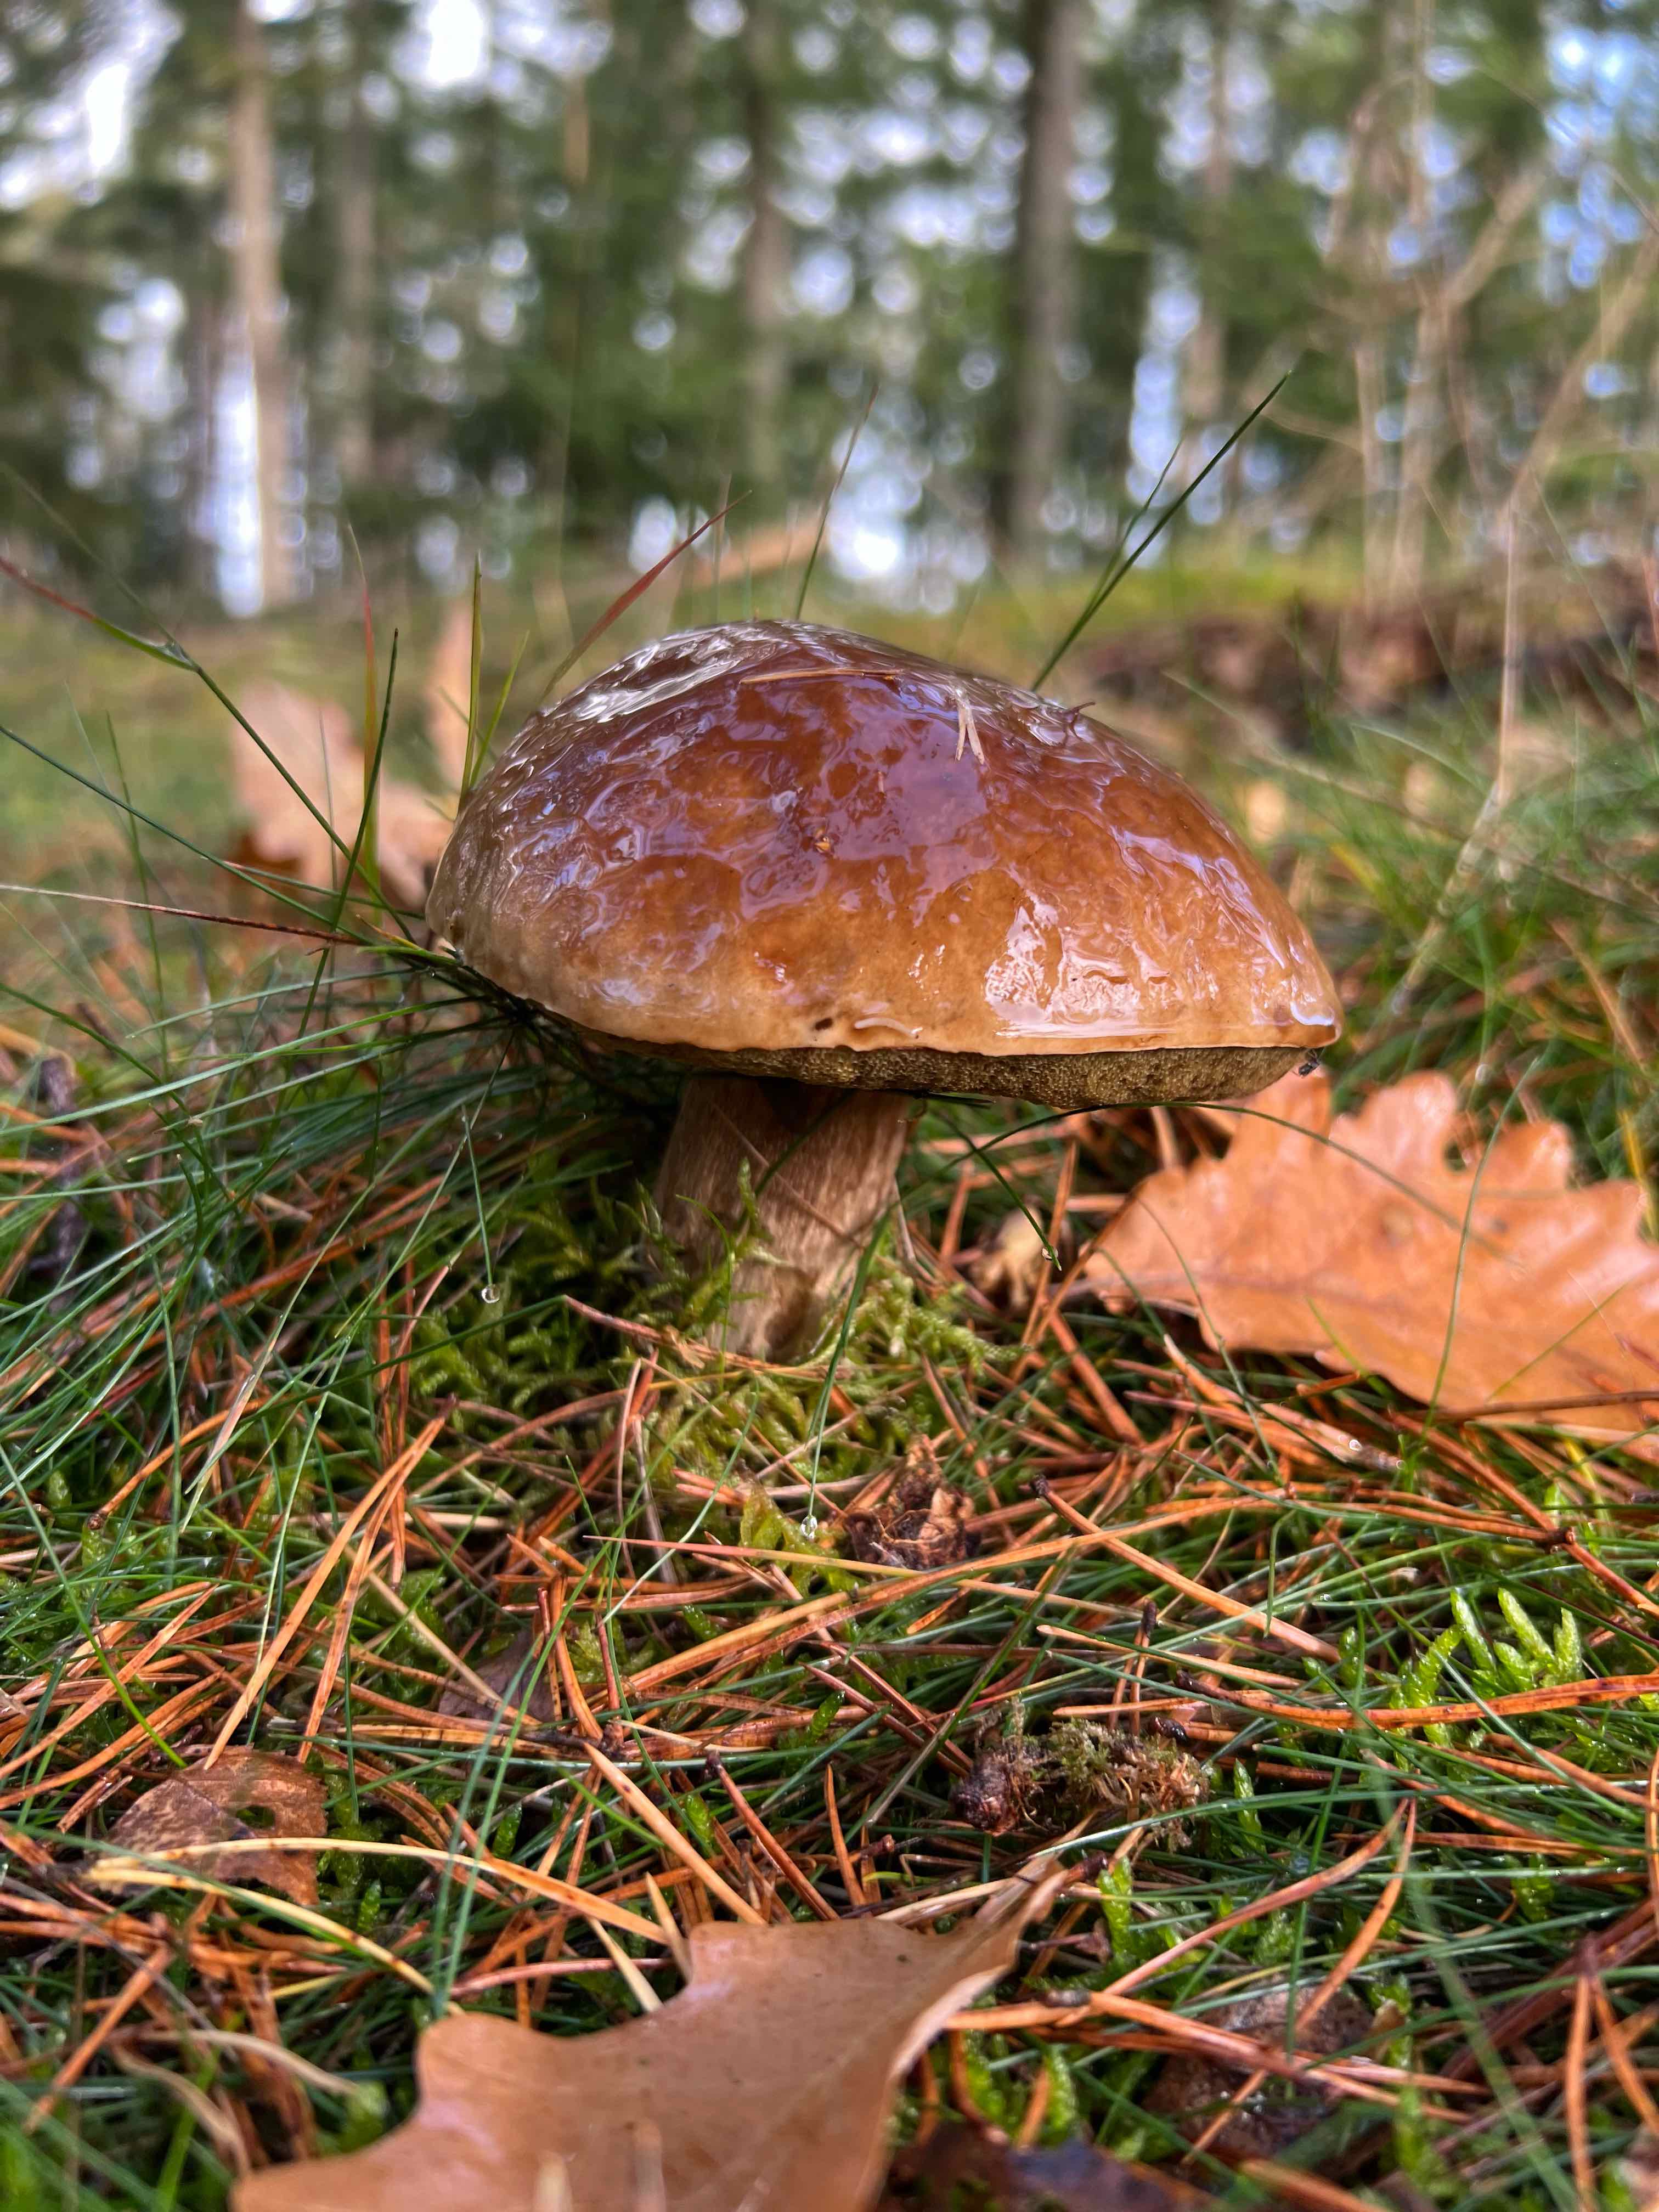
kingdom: Fungi
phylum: Basidiomycota
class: Agaricomycetes
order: Boletales
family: Boletaceae
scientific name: Boletaceae
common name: rørhatfamilien
